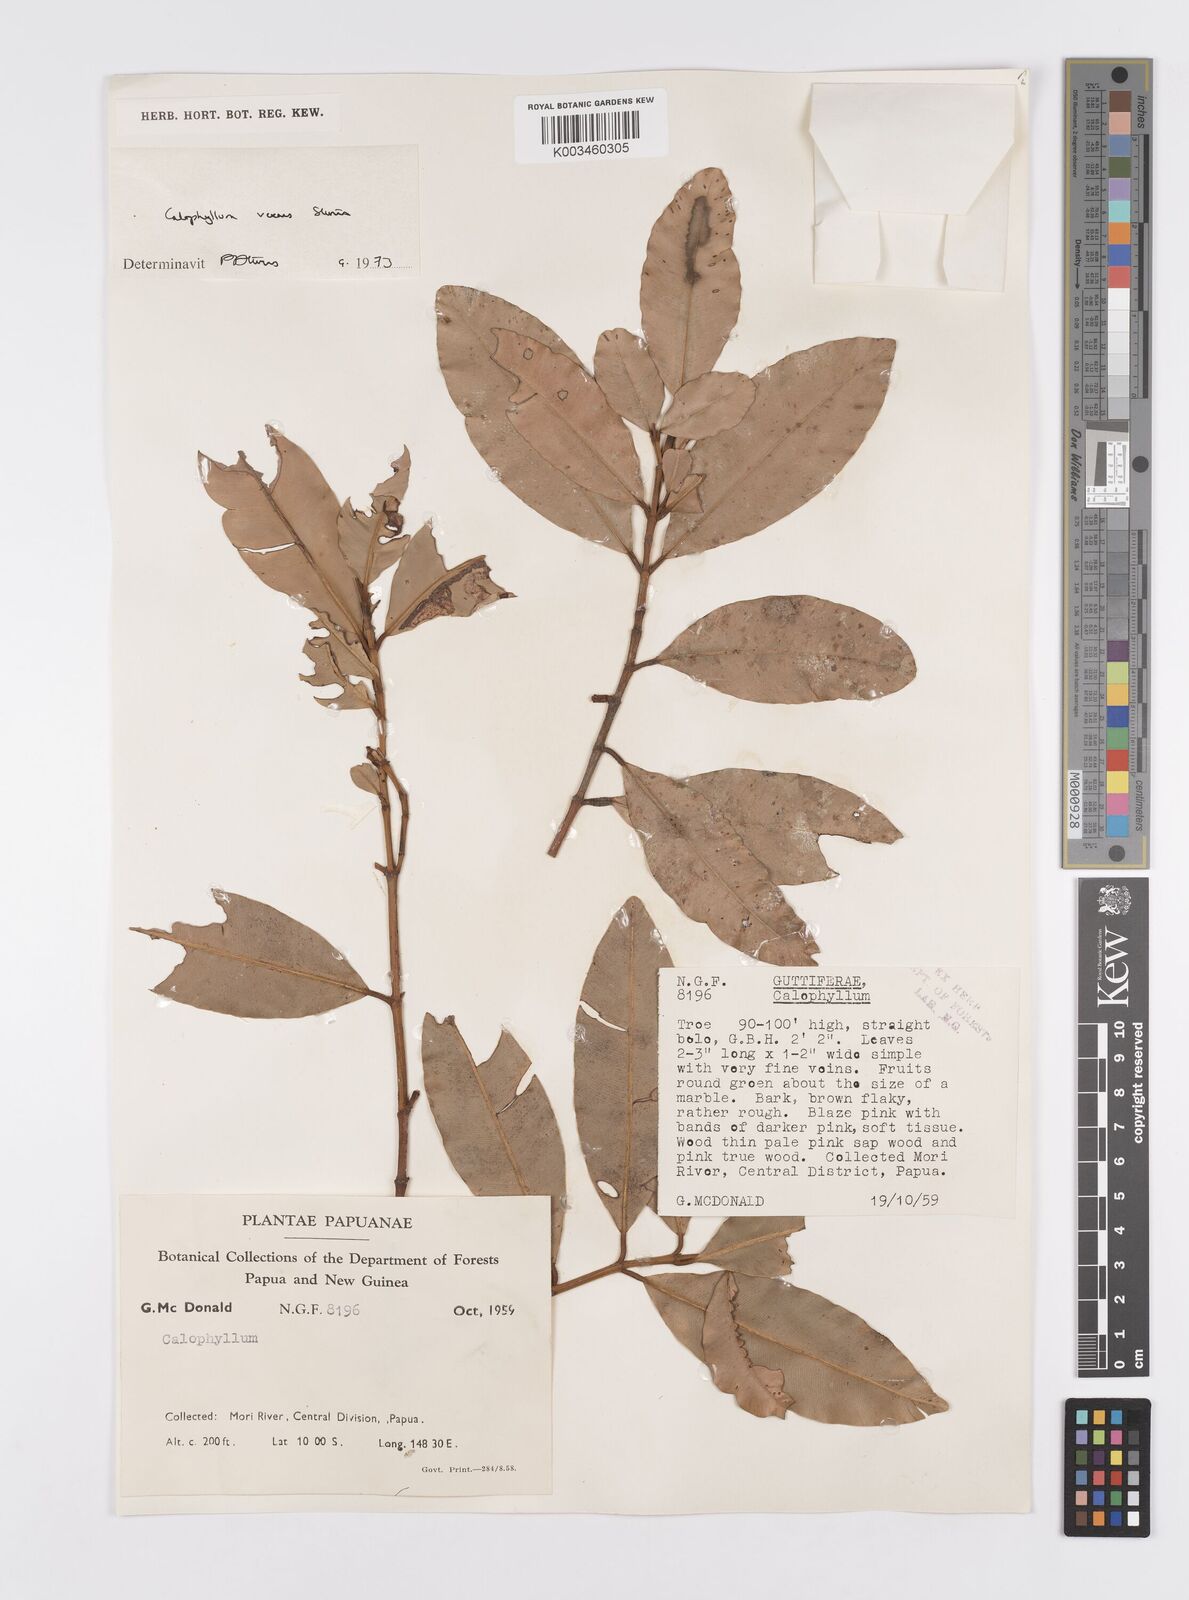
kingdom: Plantae
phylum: Tracheophyta
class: Magnoliopsida
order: Malpighiales
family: Calophyllaceae
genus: Calophyllum
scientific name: Calophyllum vexans
